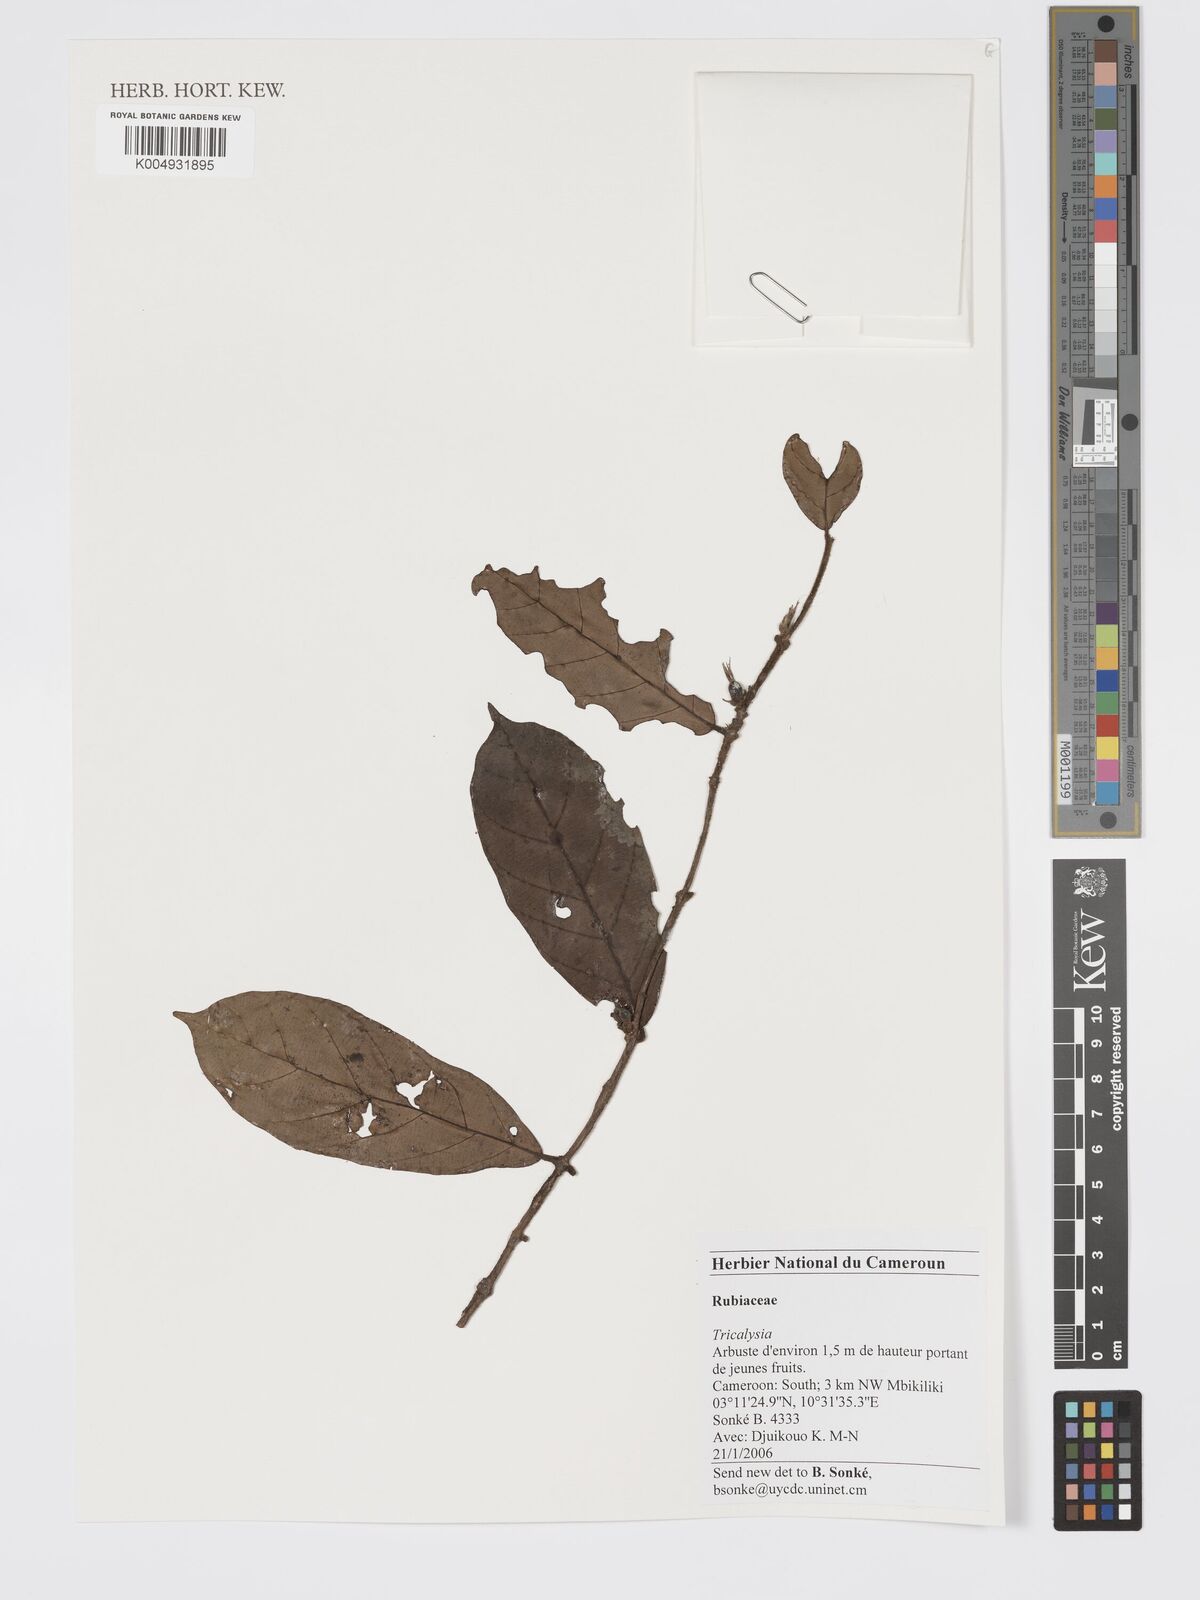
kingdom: Plantae
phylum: Tracheophyta
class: Magnoliopsida
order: Gentianales
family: Rubiaceae
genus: Tricalysia
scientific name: Tricalysia
